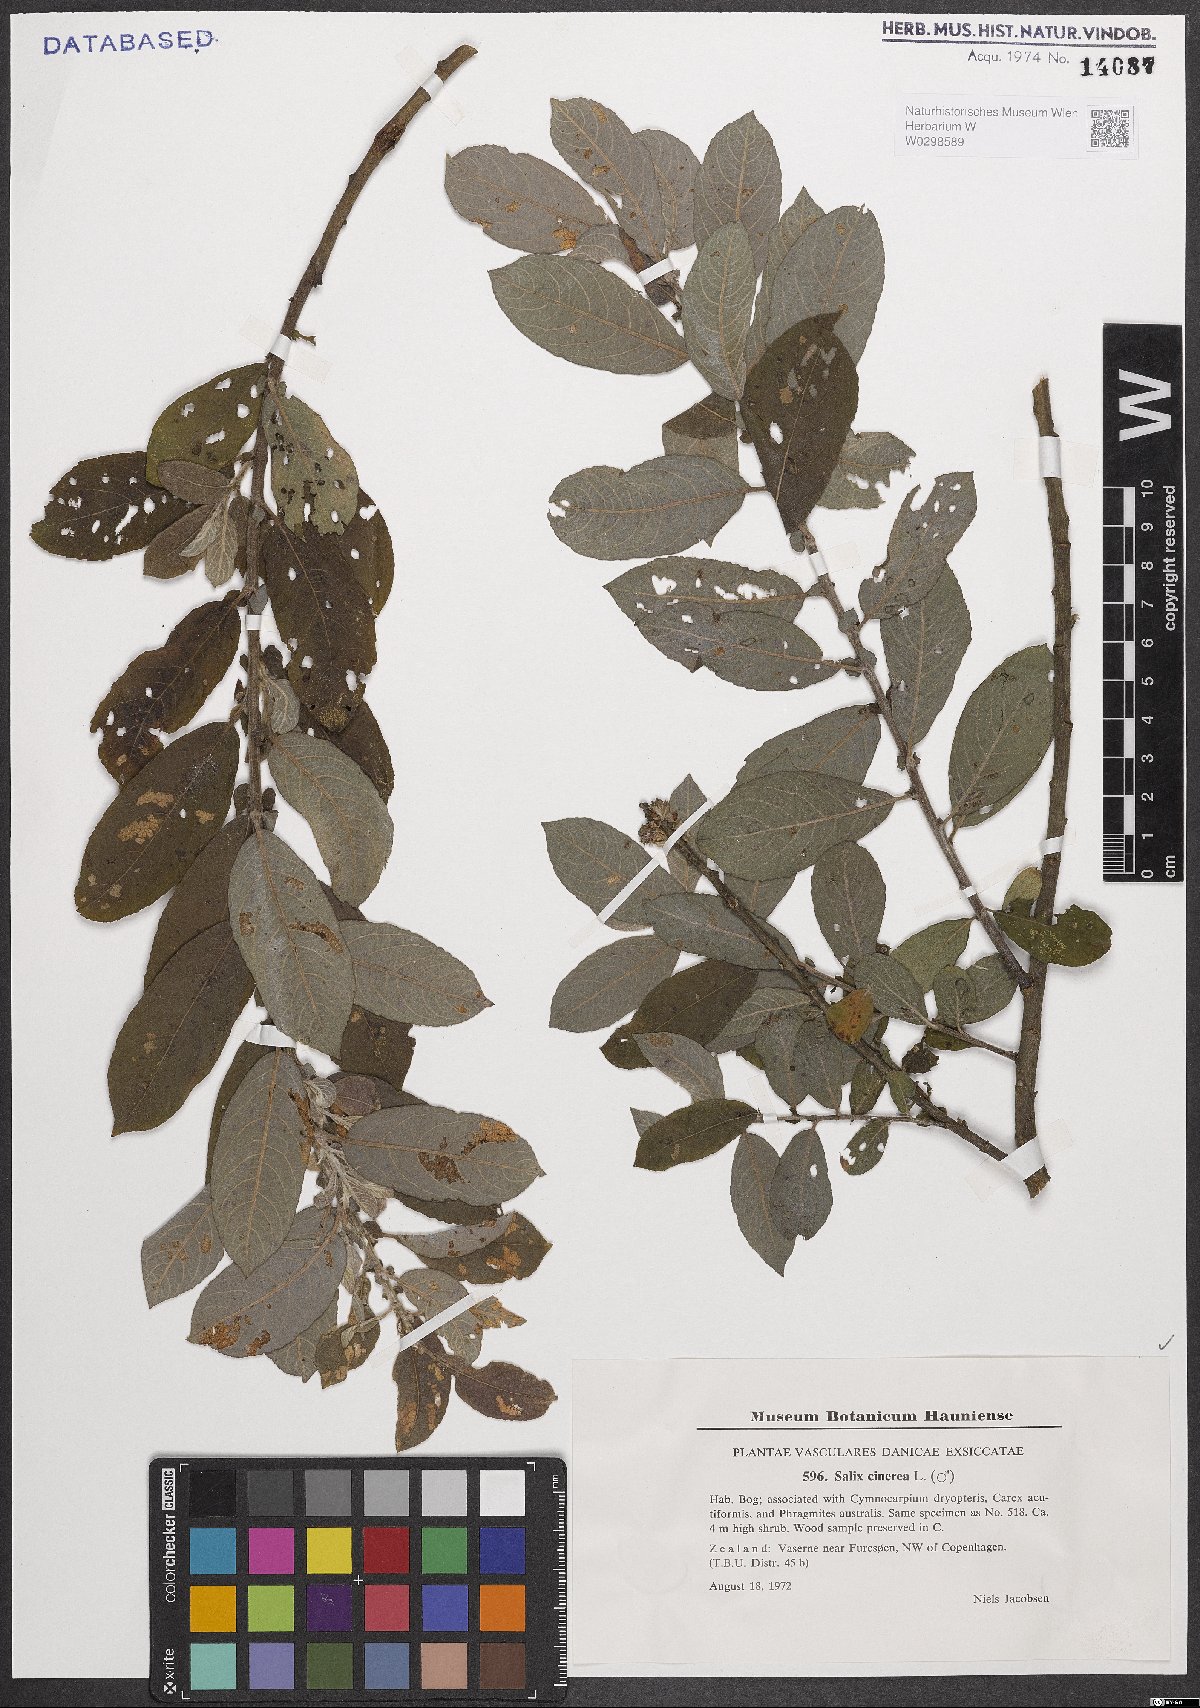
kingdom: Plantae
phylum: Tracheophyta
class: Magnoliopsida
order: Malpighiales
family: Salicaceae
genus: Salix
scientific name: Salix cinerea
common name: Common sallow
